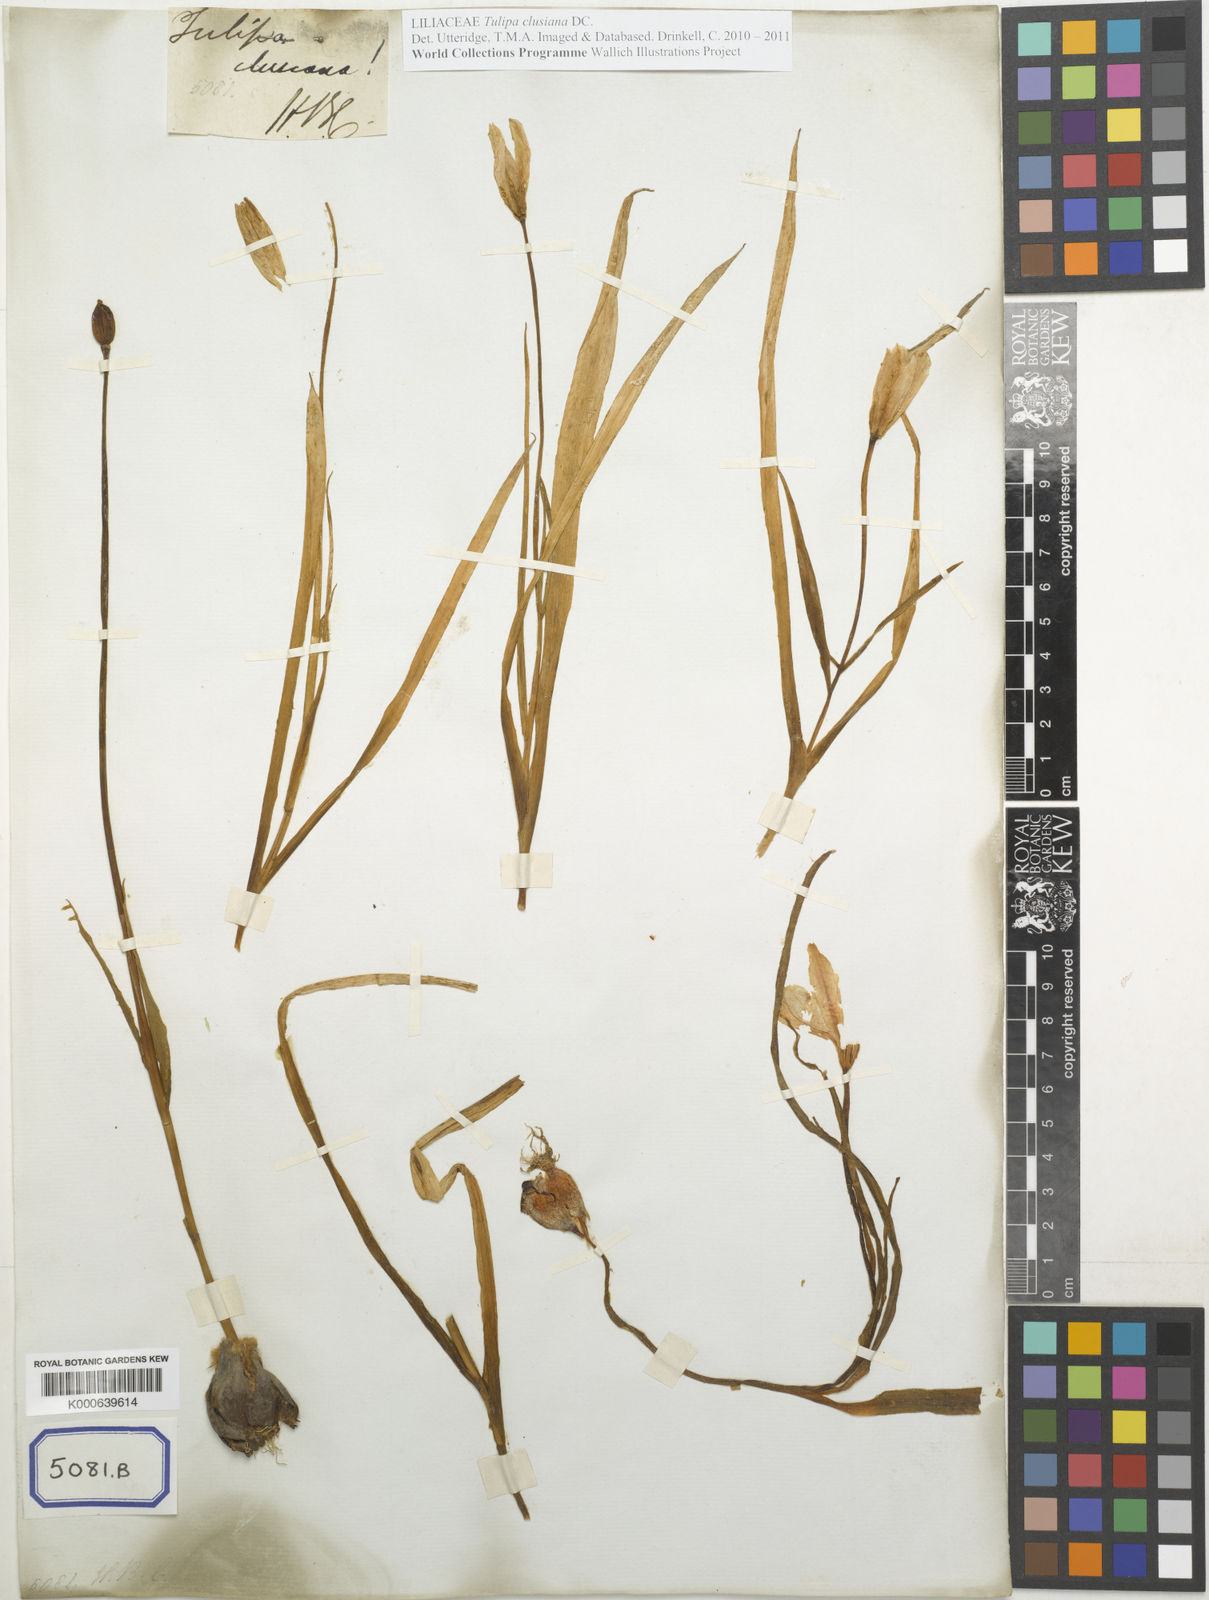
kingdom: Plantae
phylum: Tracheophyta
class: Liliopsida
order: Liliales
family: Liliaceae
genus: Tulipa
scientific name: Tulipa
